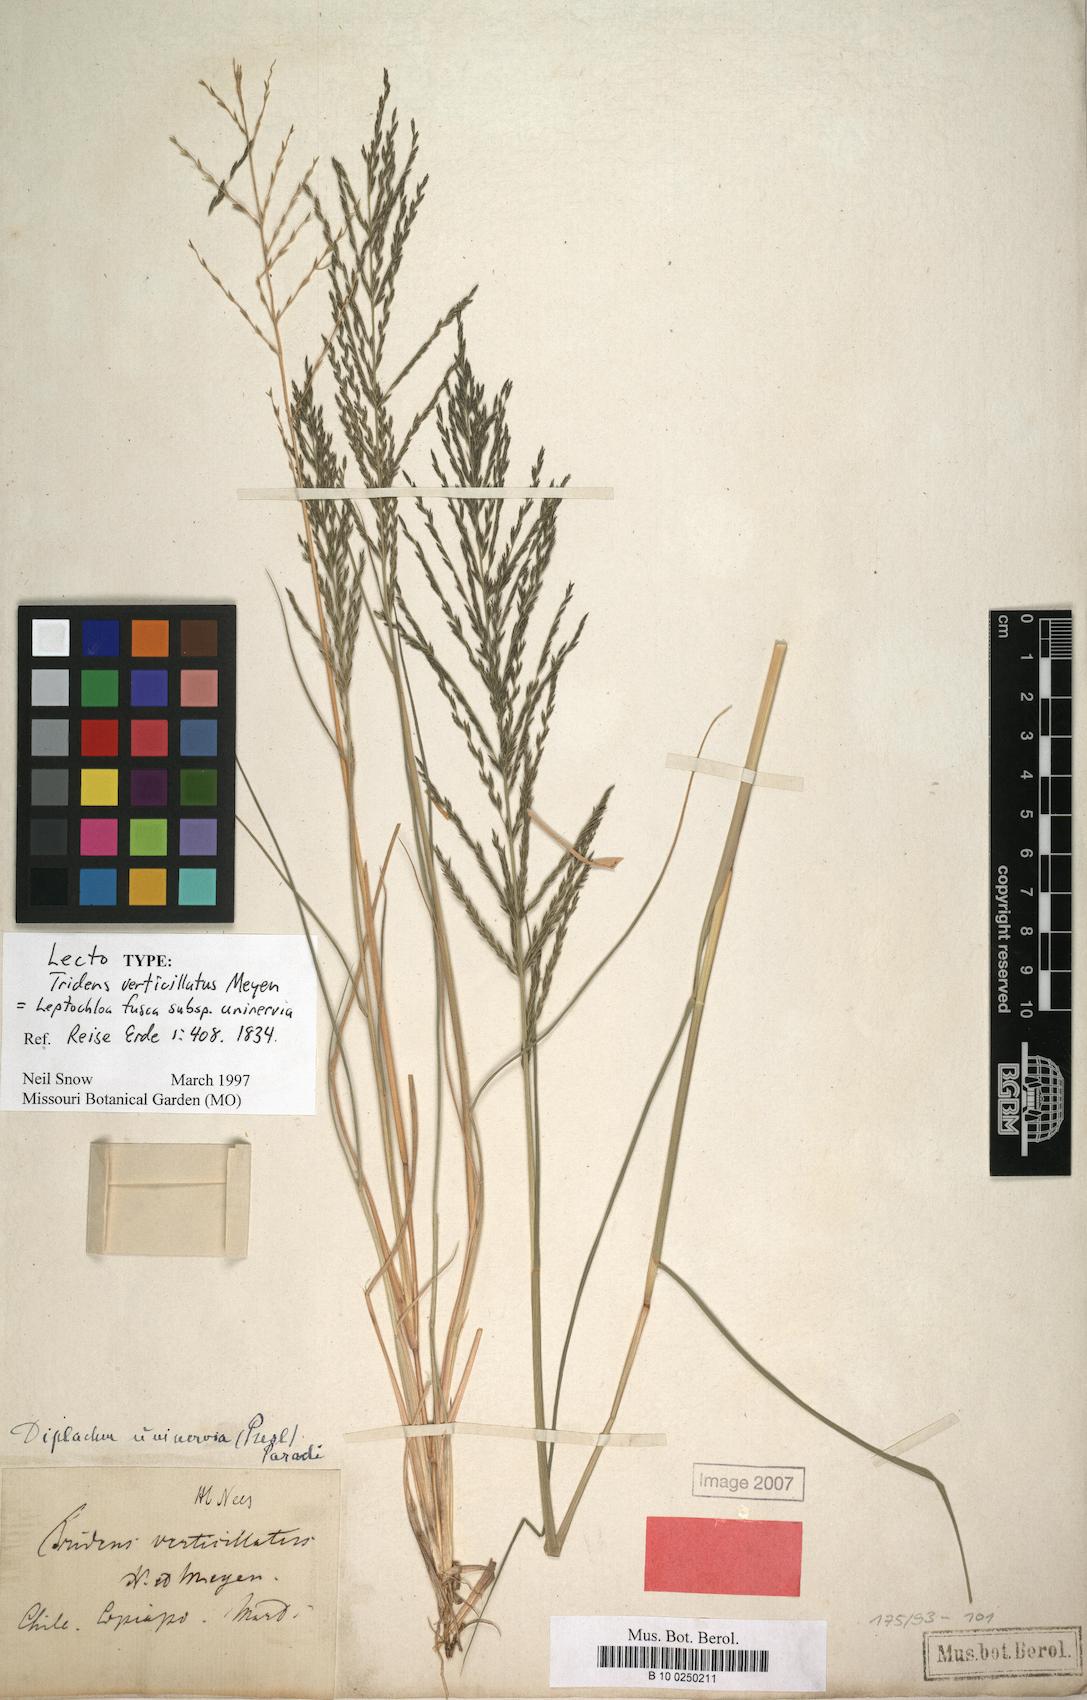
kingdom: Plantae
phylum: Tracheophyta
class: Liliopsida
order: Poales
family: Poaceae
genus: Diplachne
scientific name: Diplachne fusca
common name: Brown beetle grass
